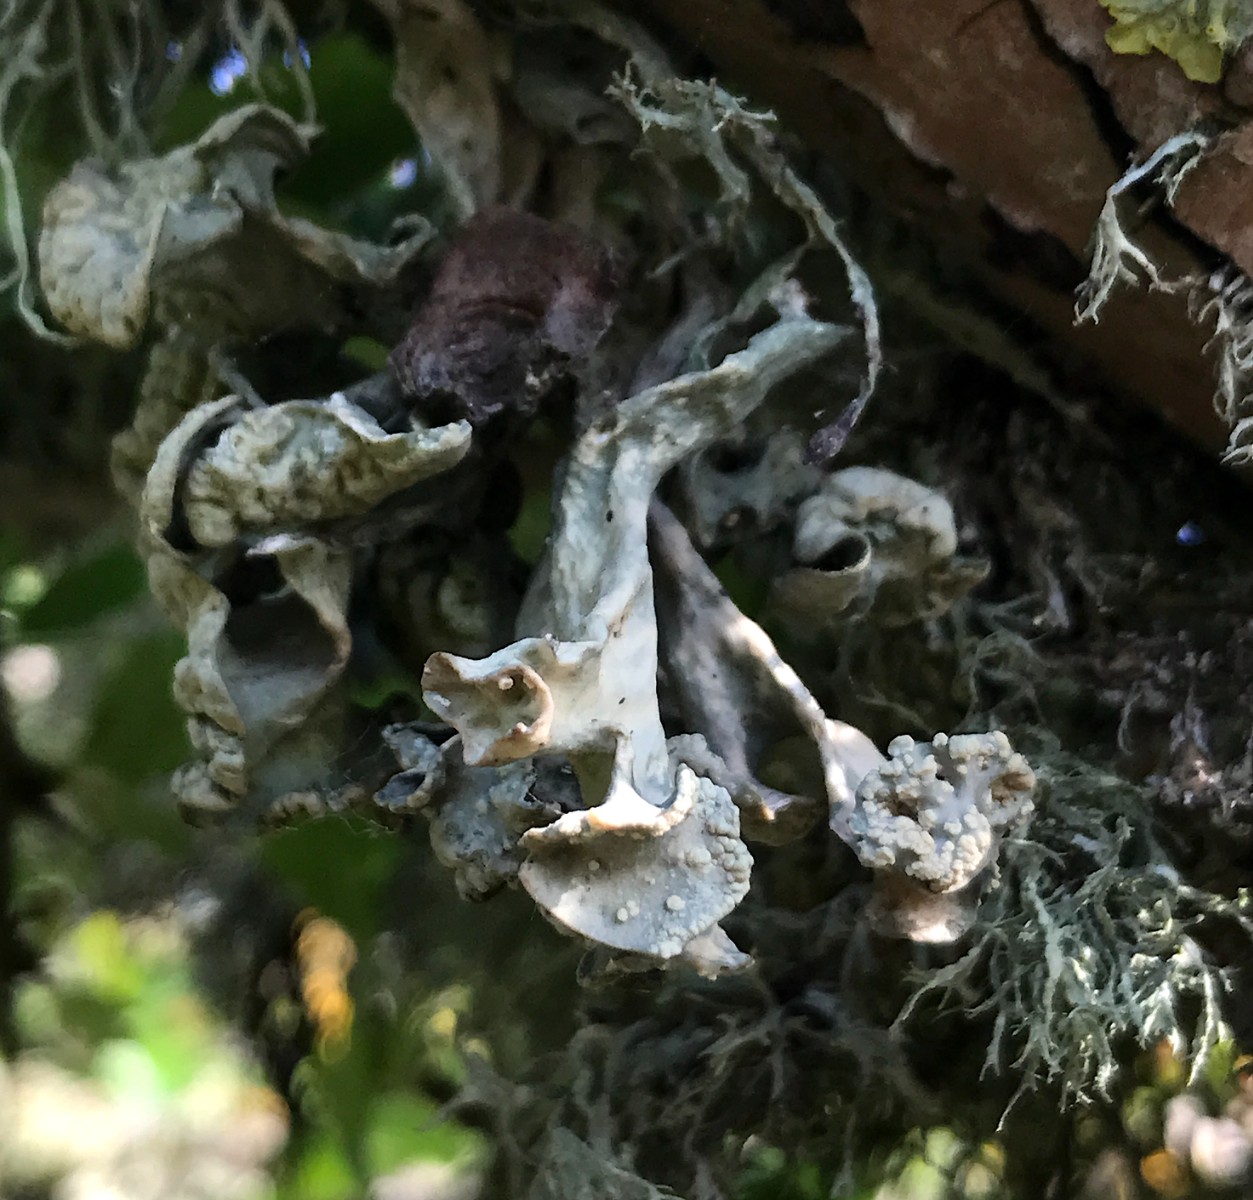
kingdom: Fungi
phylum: Ascomycota
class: Lecanoromycetes
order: Lecanorales
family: Ramalinaceae
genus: Ramalina
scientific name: Ramalina fastigiata
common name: tue-grenlav
